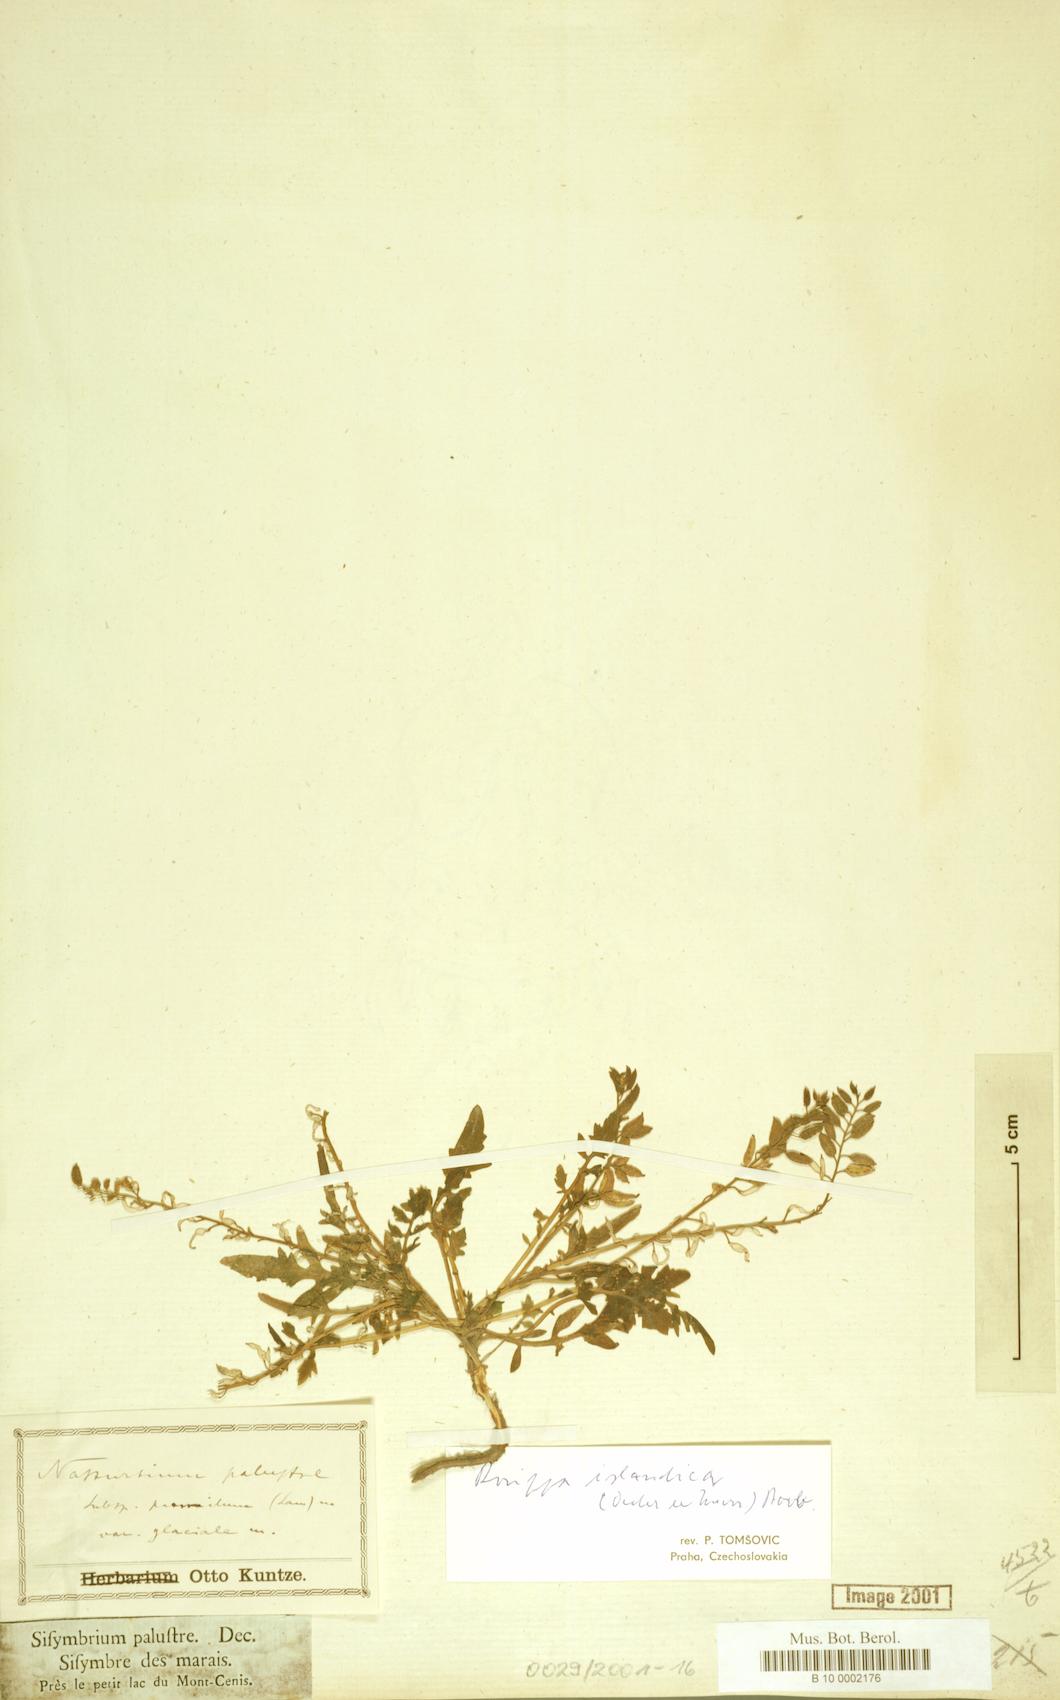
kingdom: Plantae
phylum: Tracheophyta
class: Magnoliopsida
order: Brassicales
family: Brassicaceae
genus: Rorippa
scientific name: Rorippa islandica
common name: Marsh cress
